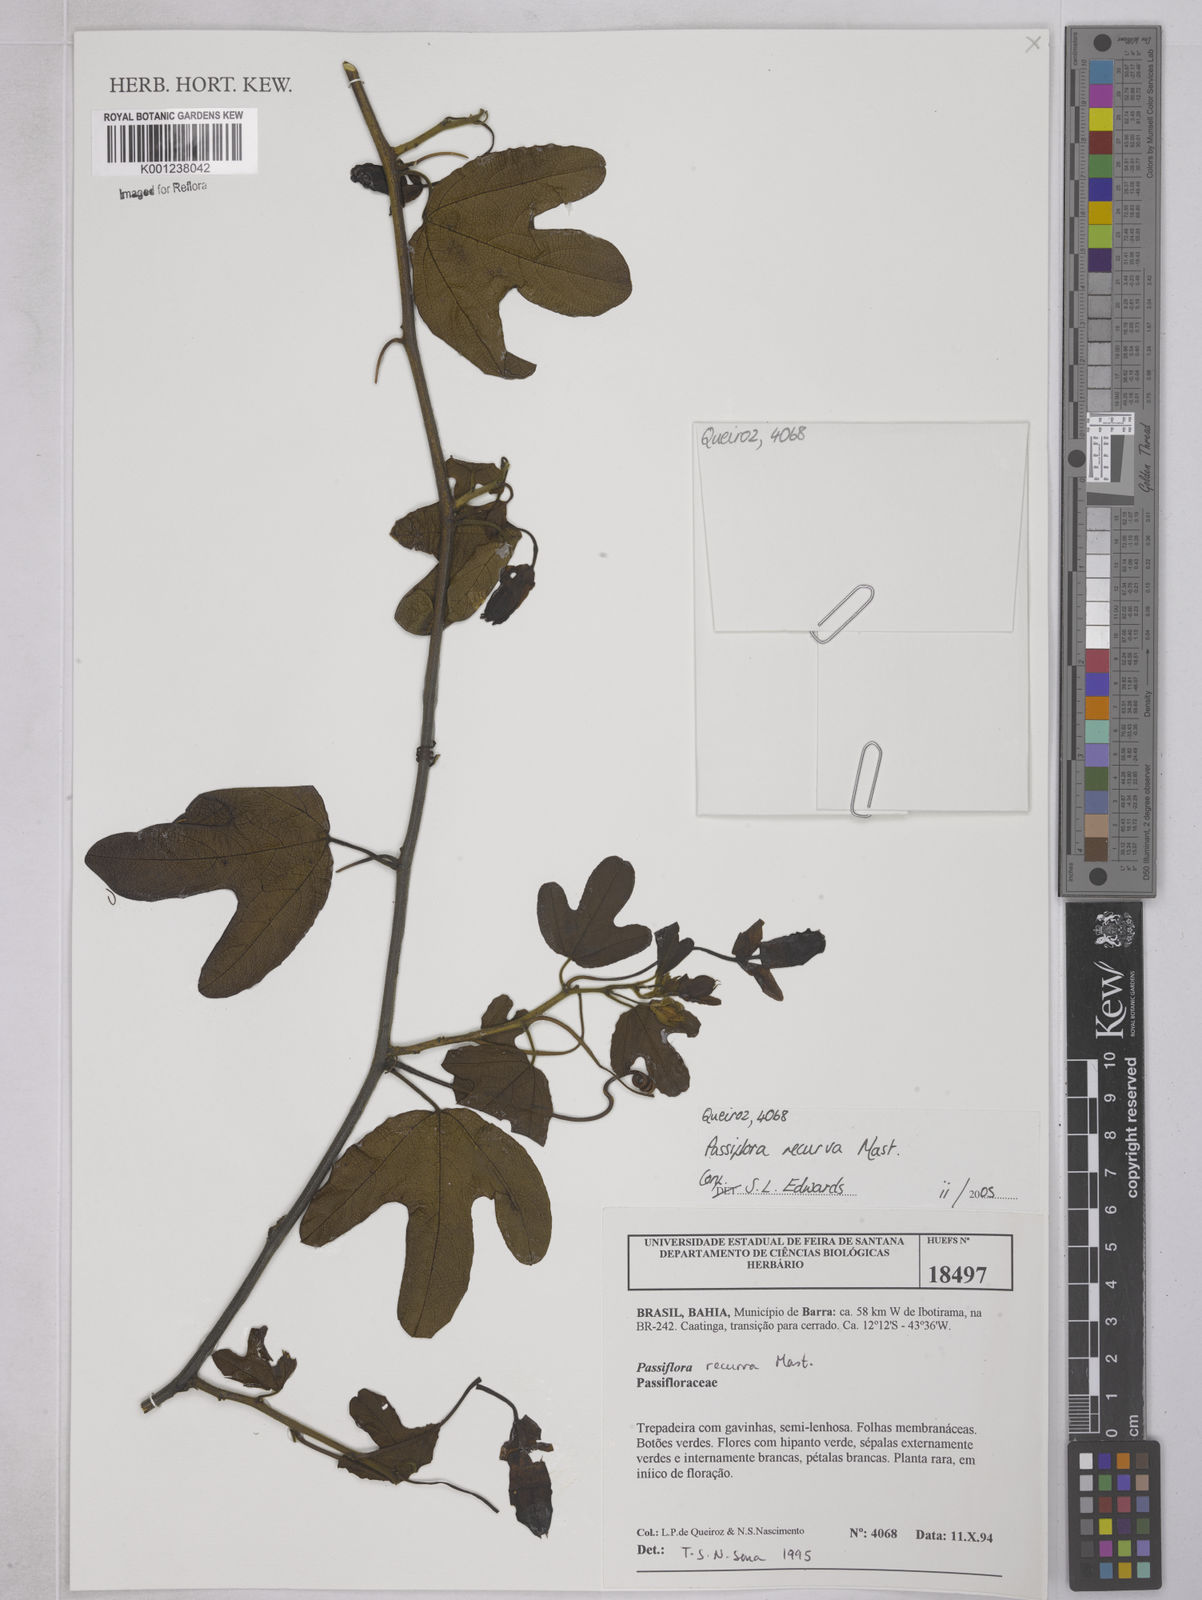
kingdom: Plantae
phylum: Tracheophyta
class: Magnoliopsida
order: Malpighiales
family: Passifloraceae
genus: Passiflora
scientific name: Passiflora recurva
